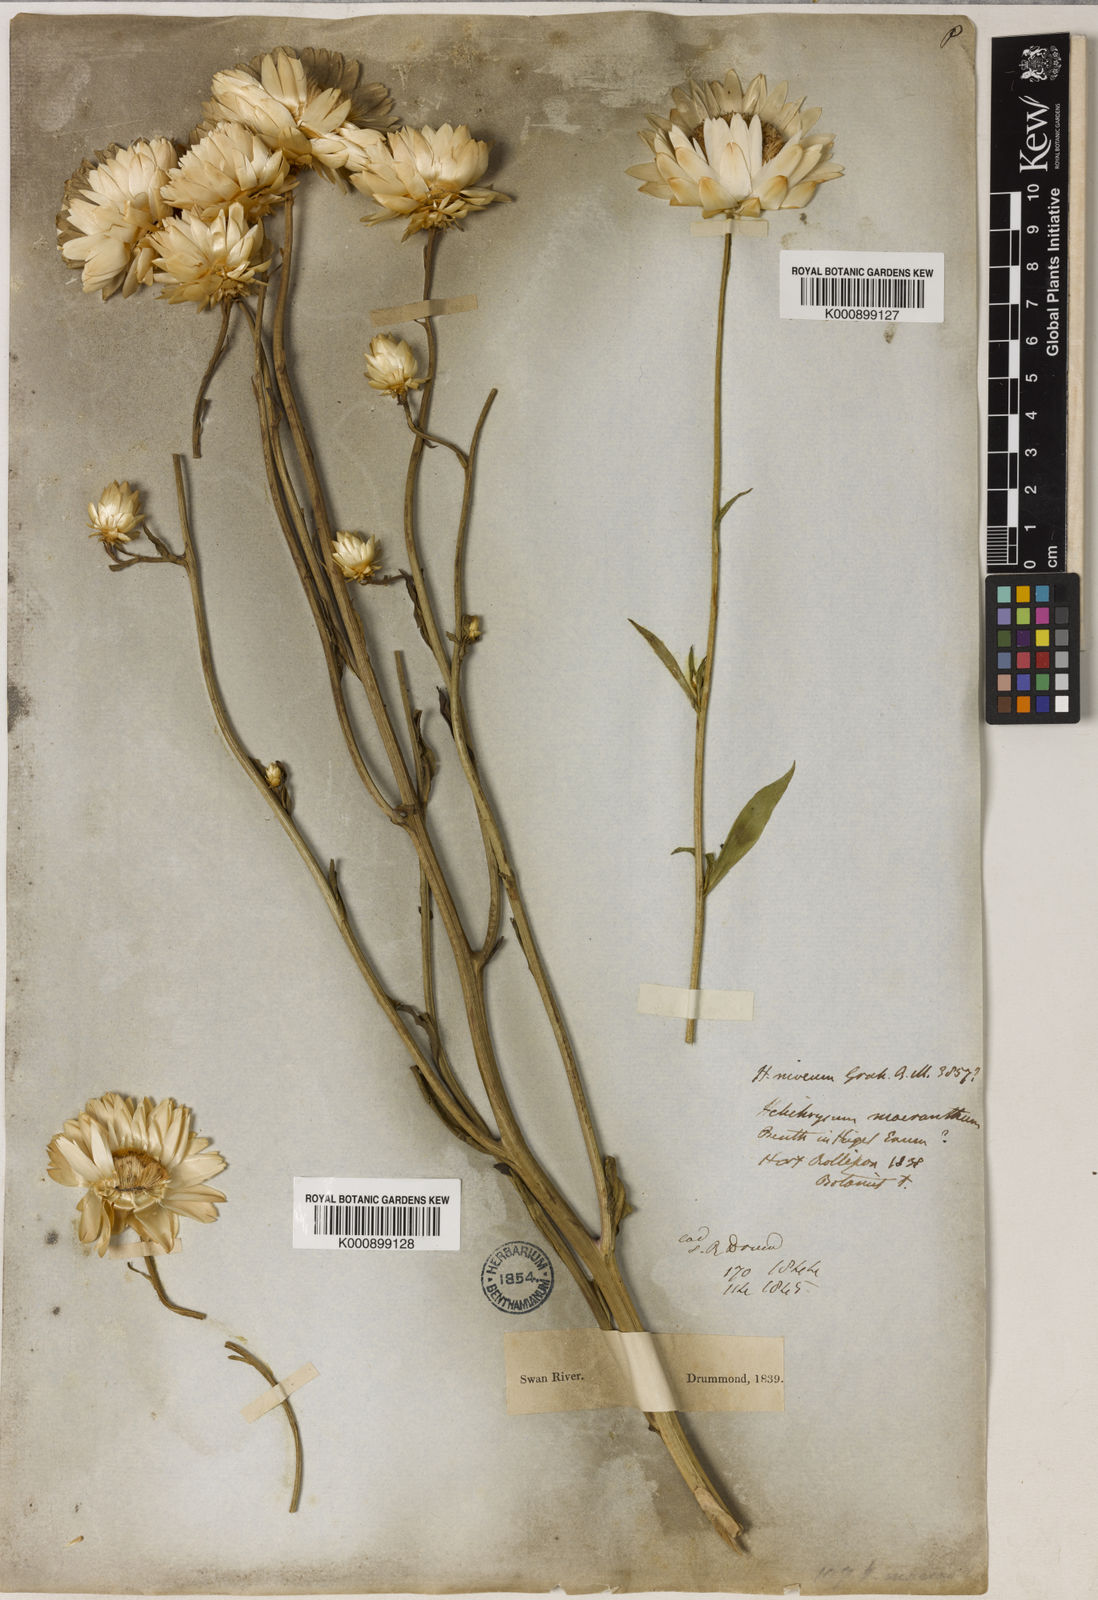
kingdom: Plantae
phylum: Tracheophyta
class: Magnoliopsida
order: Asterales
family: Asteraceae
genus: Xerochrysum
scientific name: Xerochrysum
